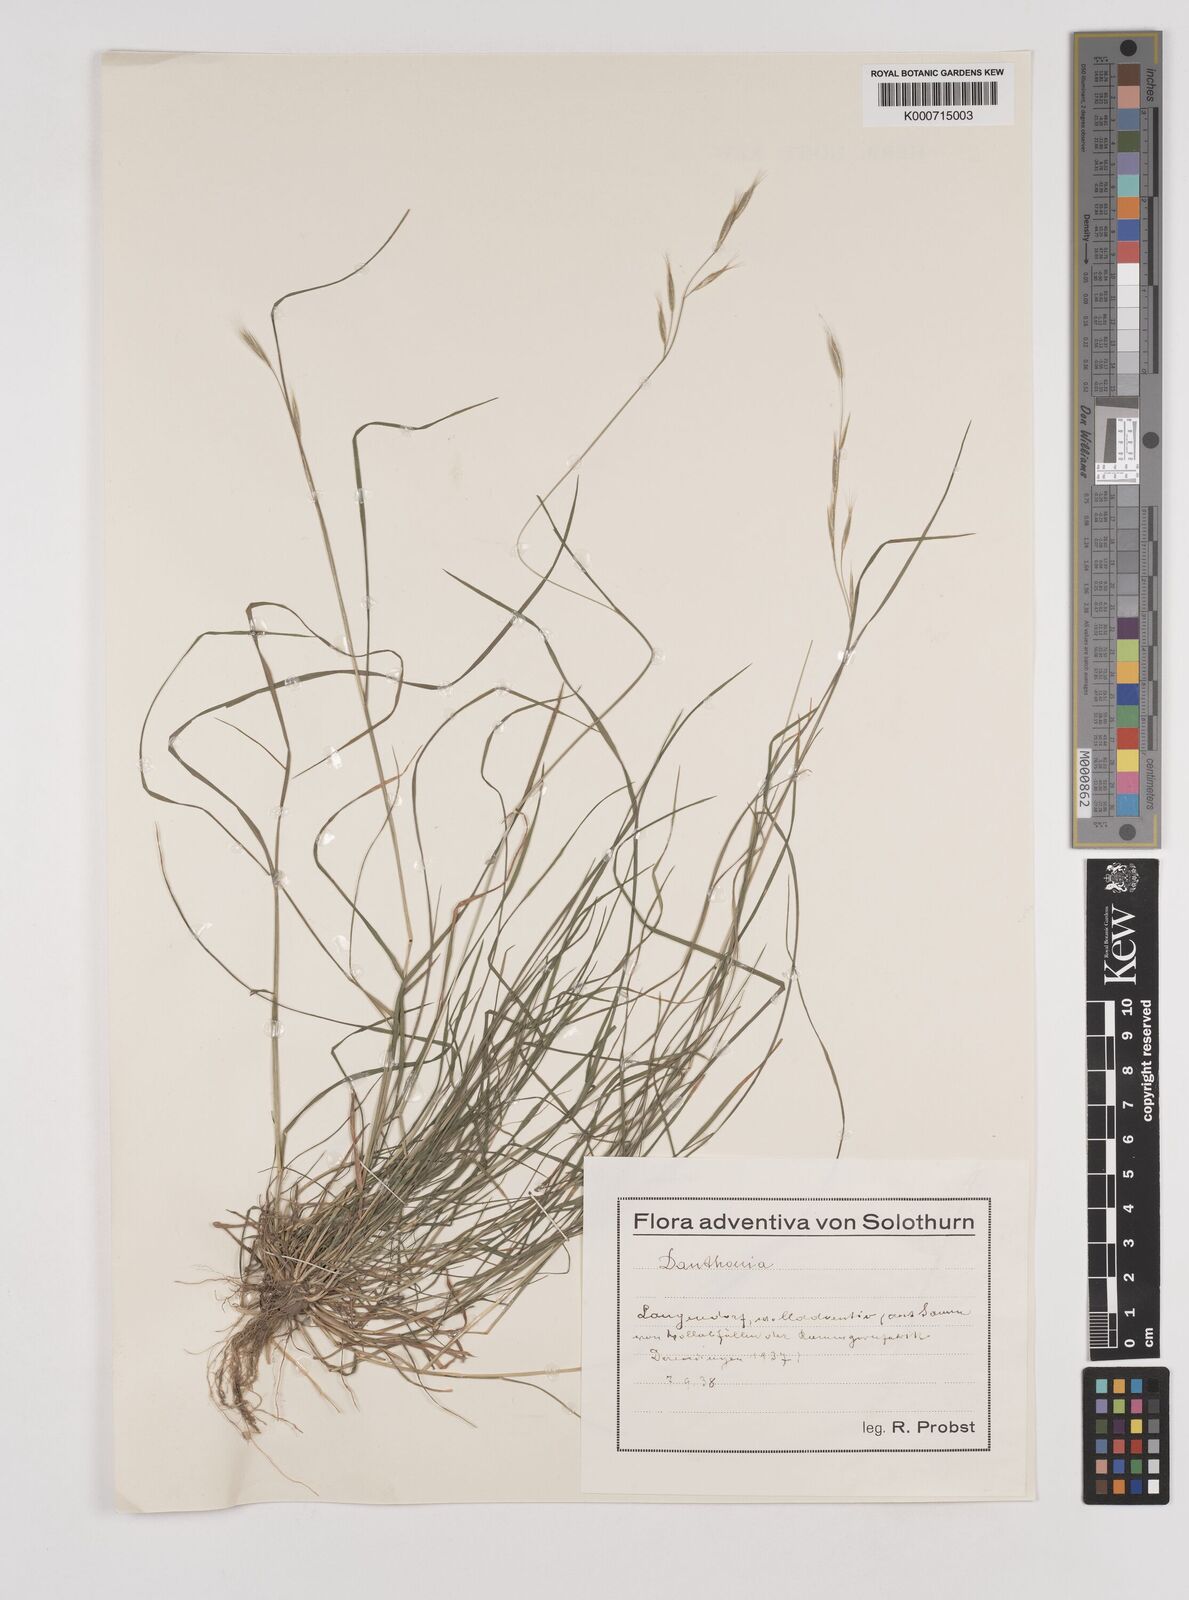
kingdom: Plantae
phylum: Tracheophyta
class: Liliopsida
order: Poales
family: Poaceae
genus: Rytidosperma
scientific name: Rytidosperma
